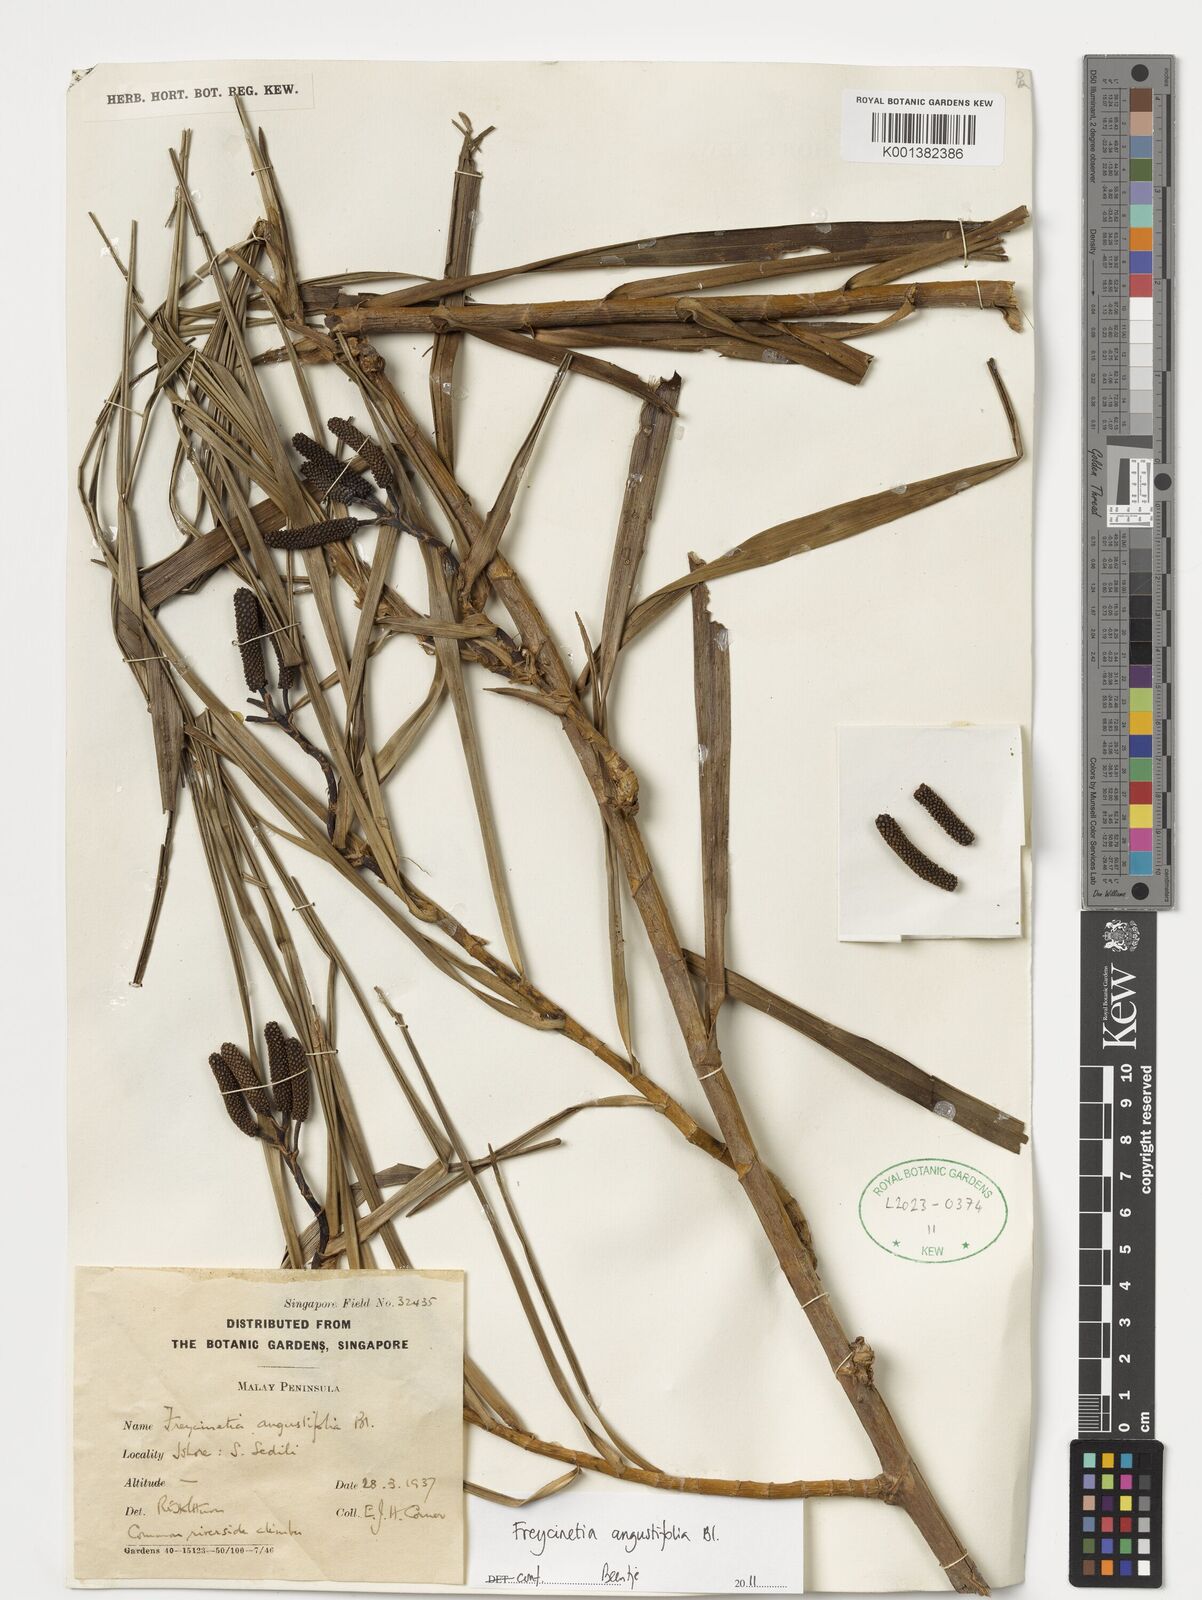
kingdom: Plantae
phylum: Tracheophyta
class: Liliopsida
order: Pandanales
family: Pandanaceae
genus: Freycinetia
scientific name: Freycinetia angustifolia
